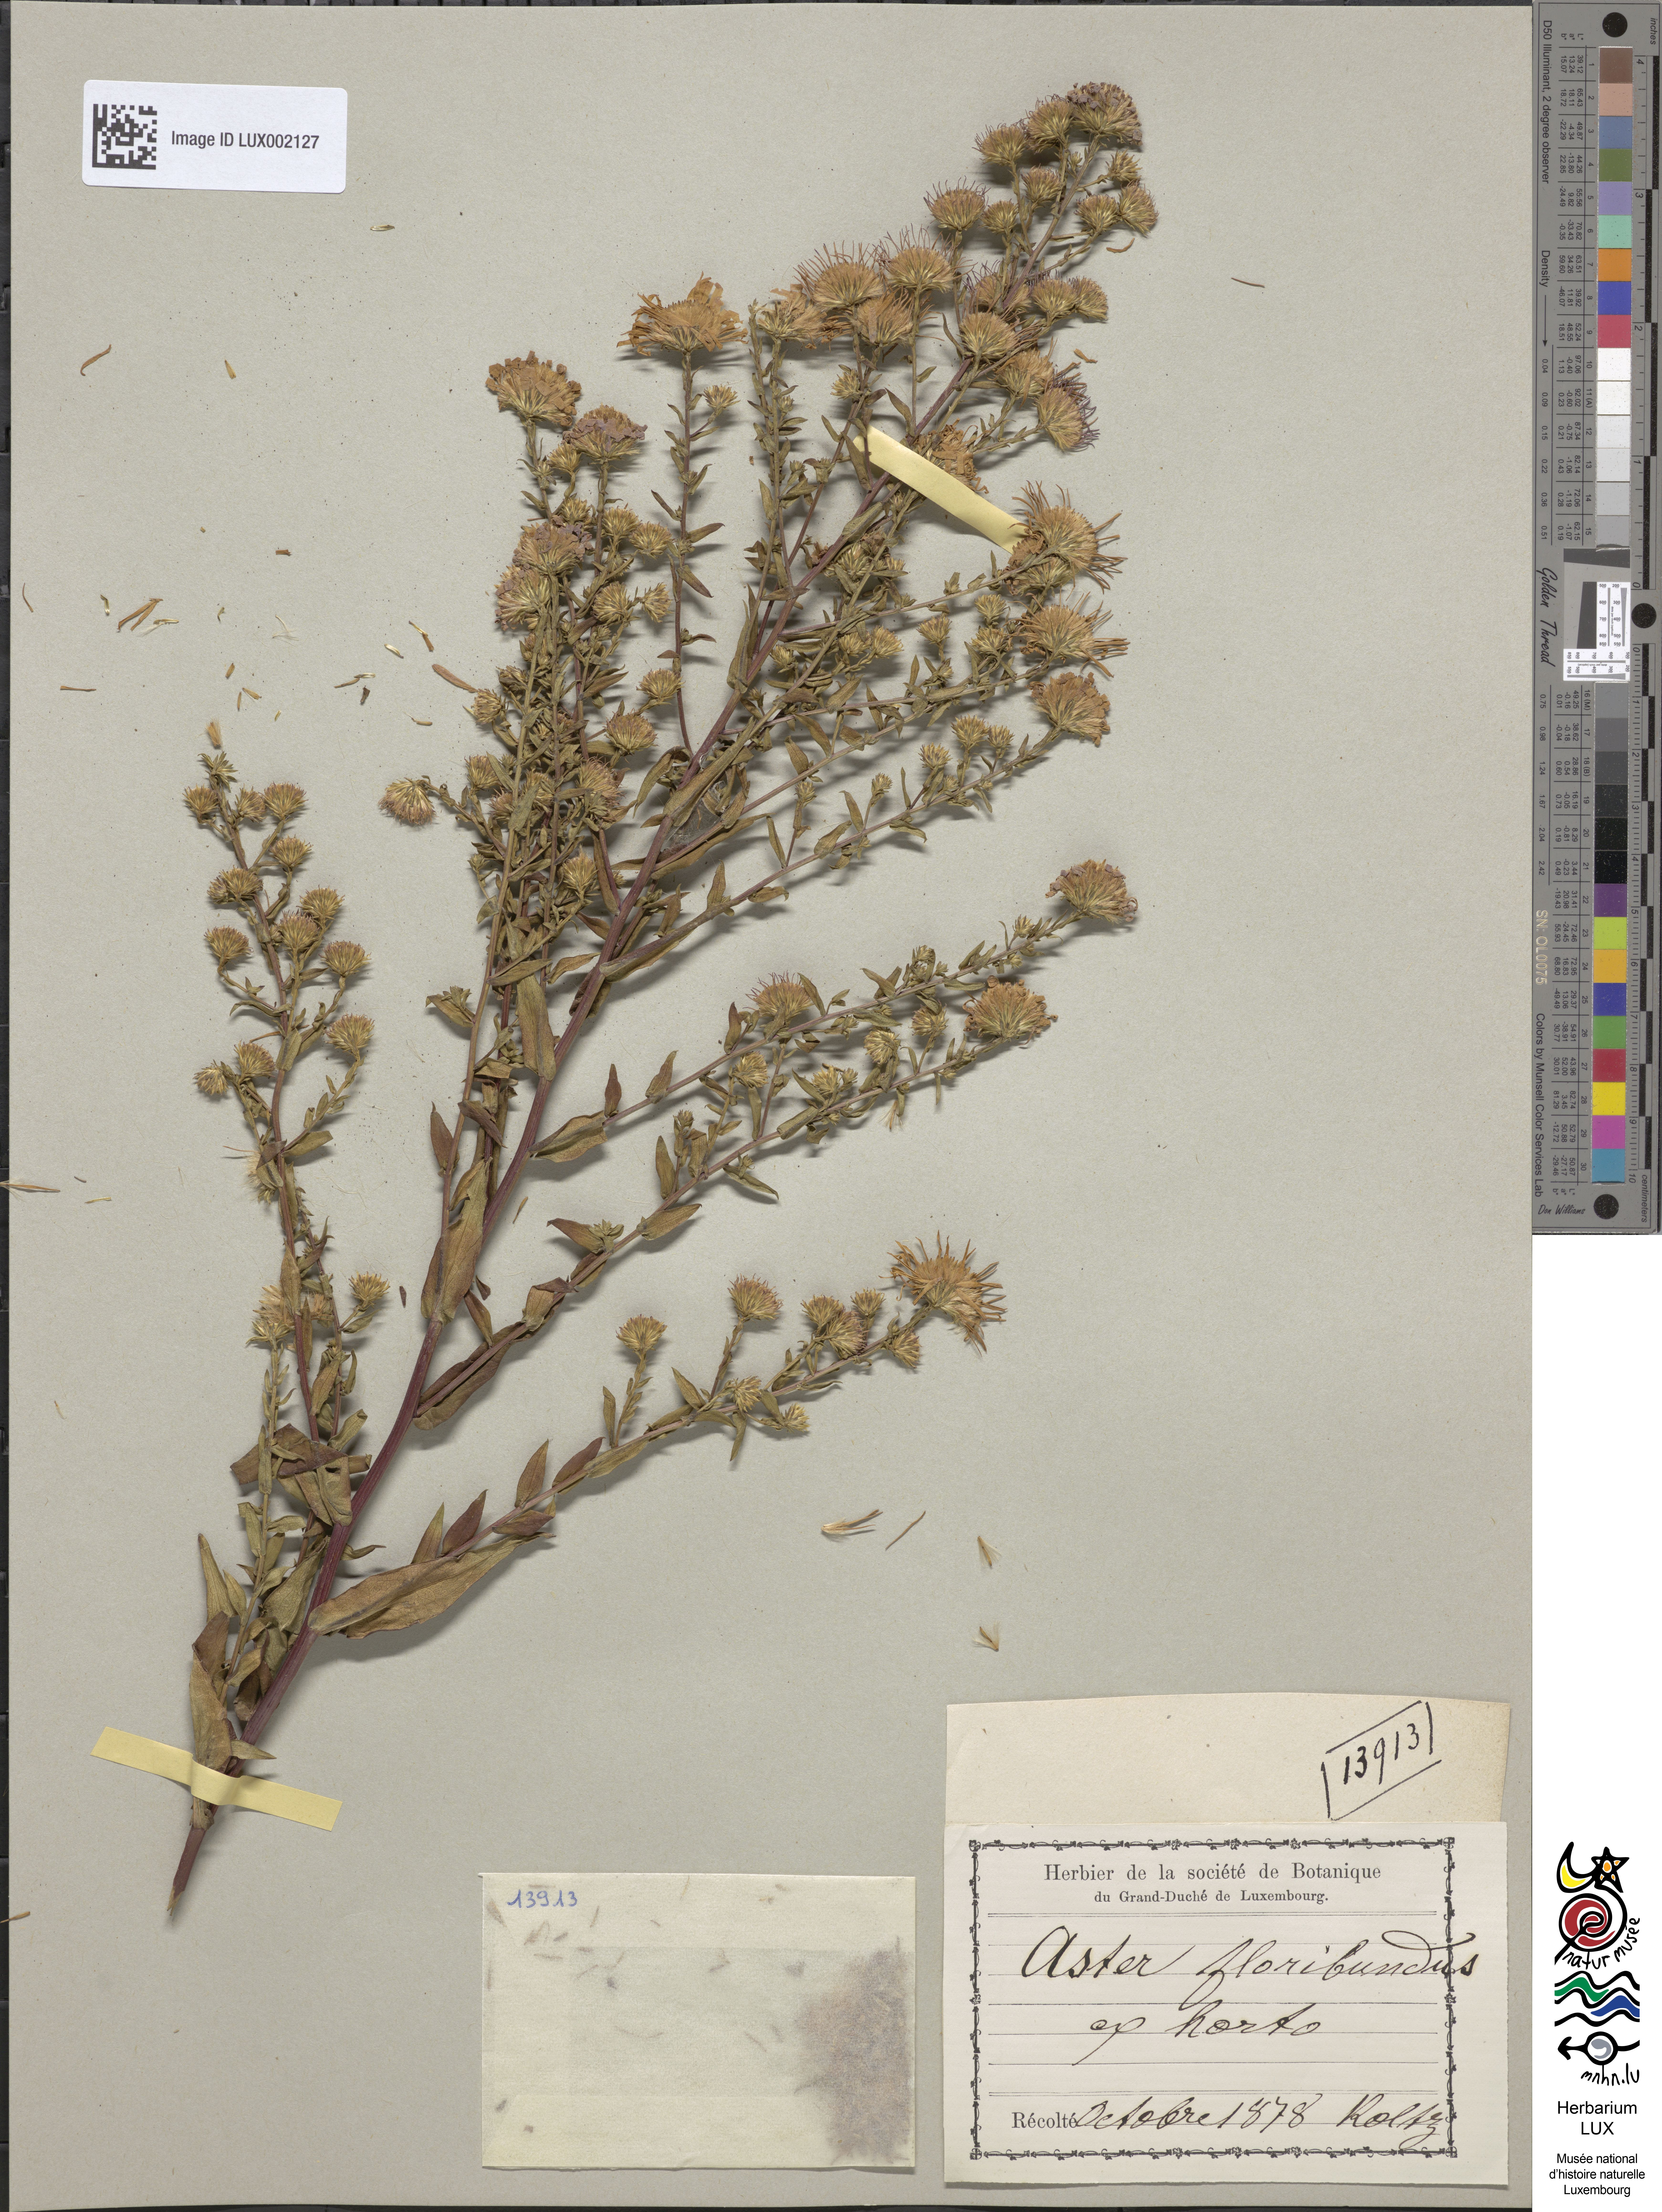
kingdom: Plantae
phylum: Tracheophyta
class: Magnoliopsida
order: Asterales
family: Asteraceae
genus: Symphyotrichum
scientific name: Symphyotrichum novi-belgii
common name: Michaelmas daisy
